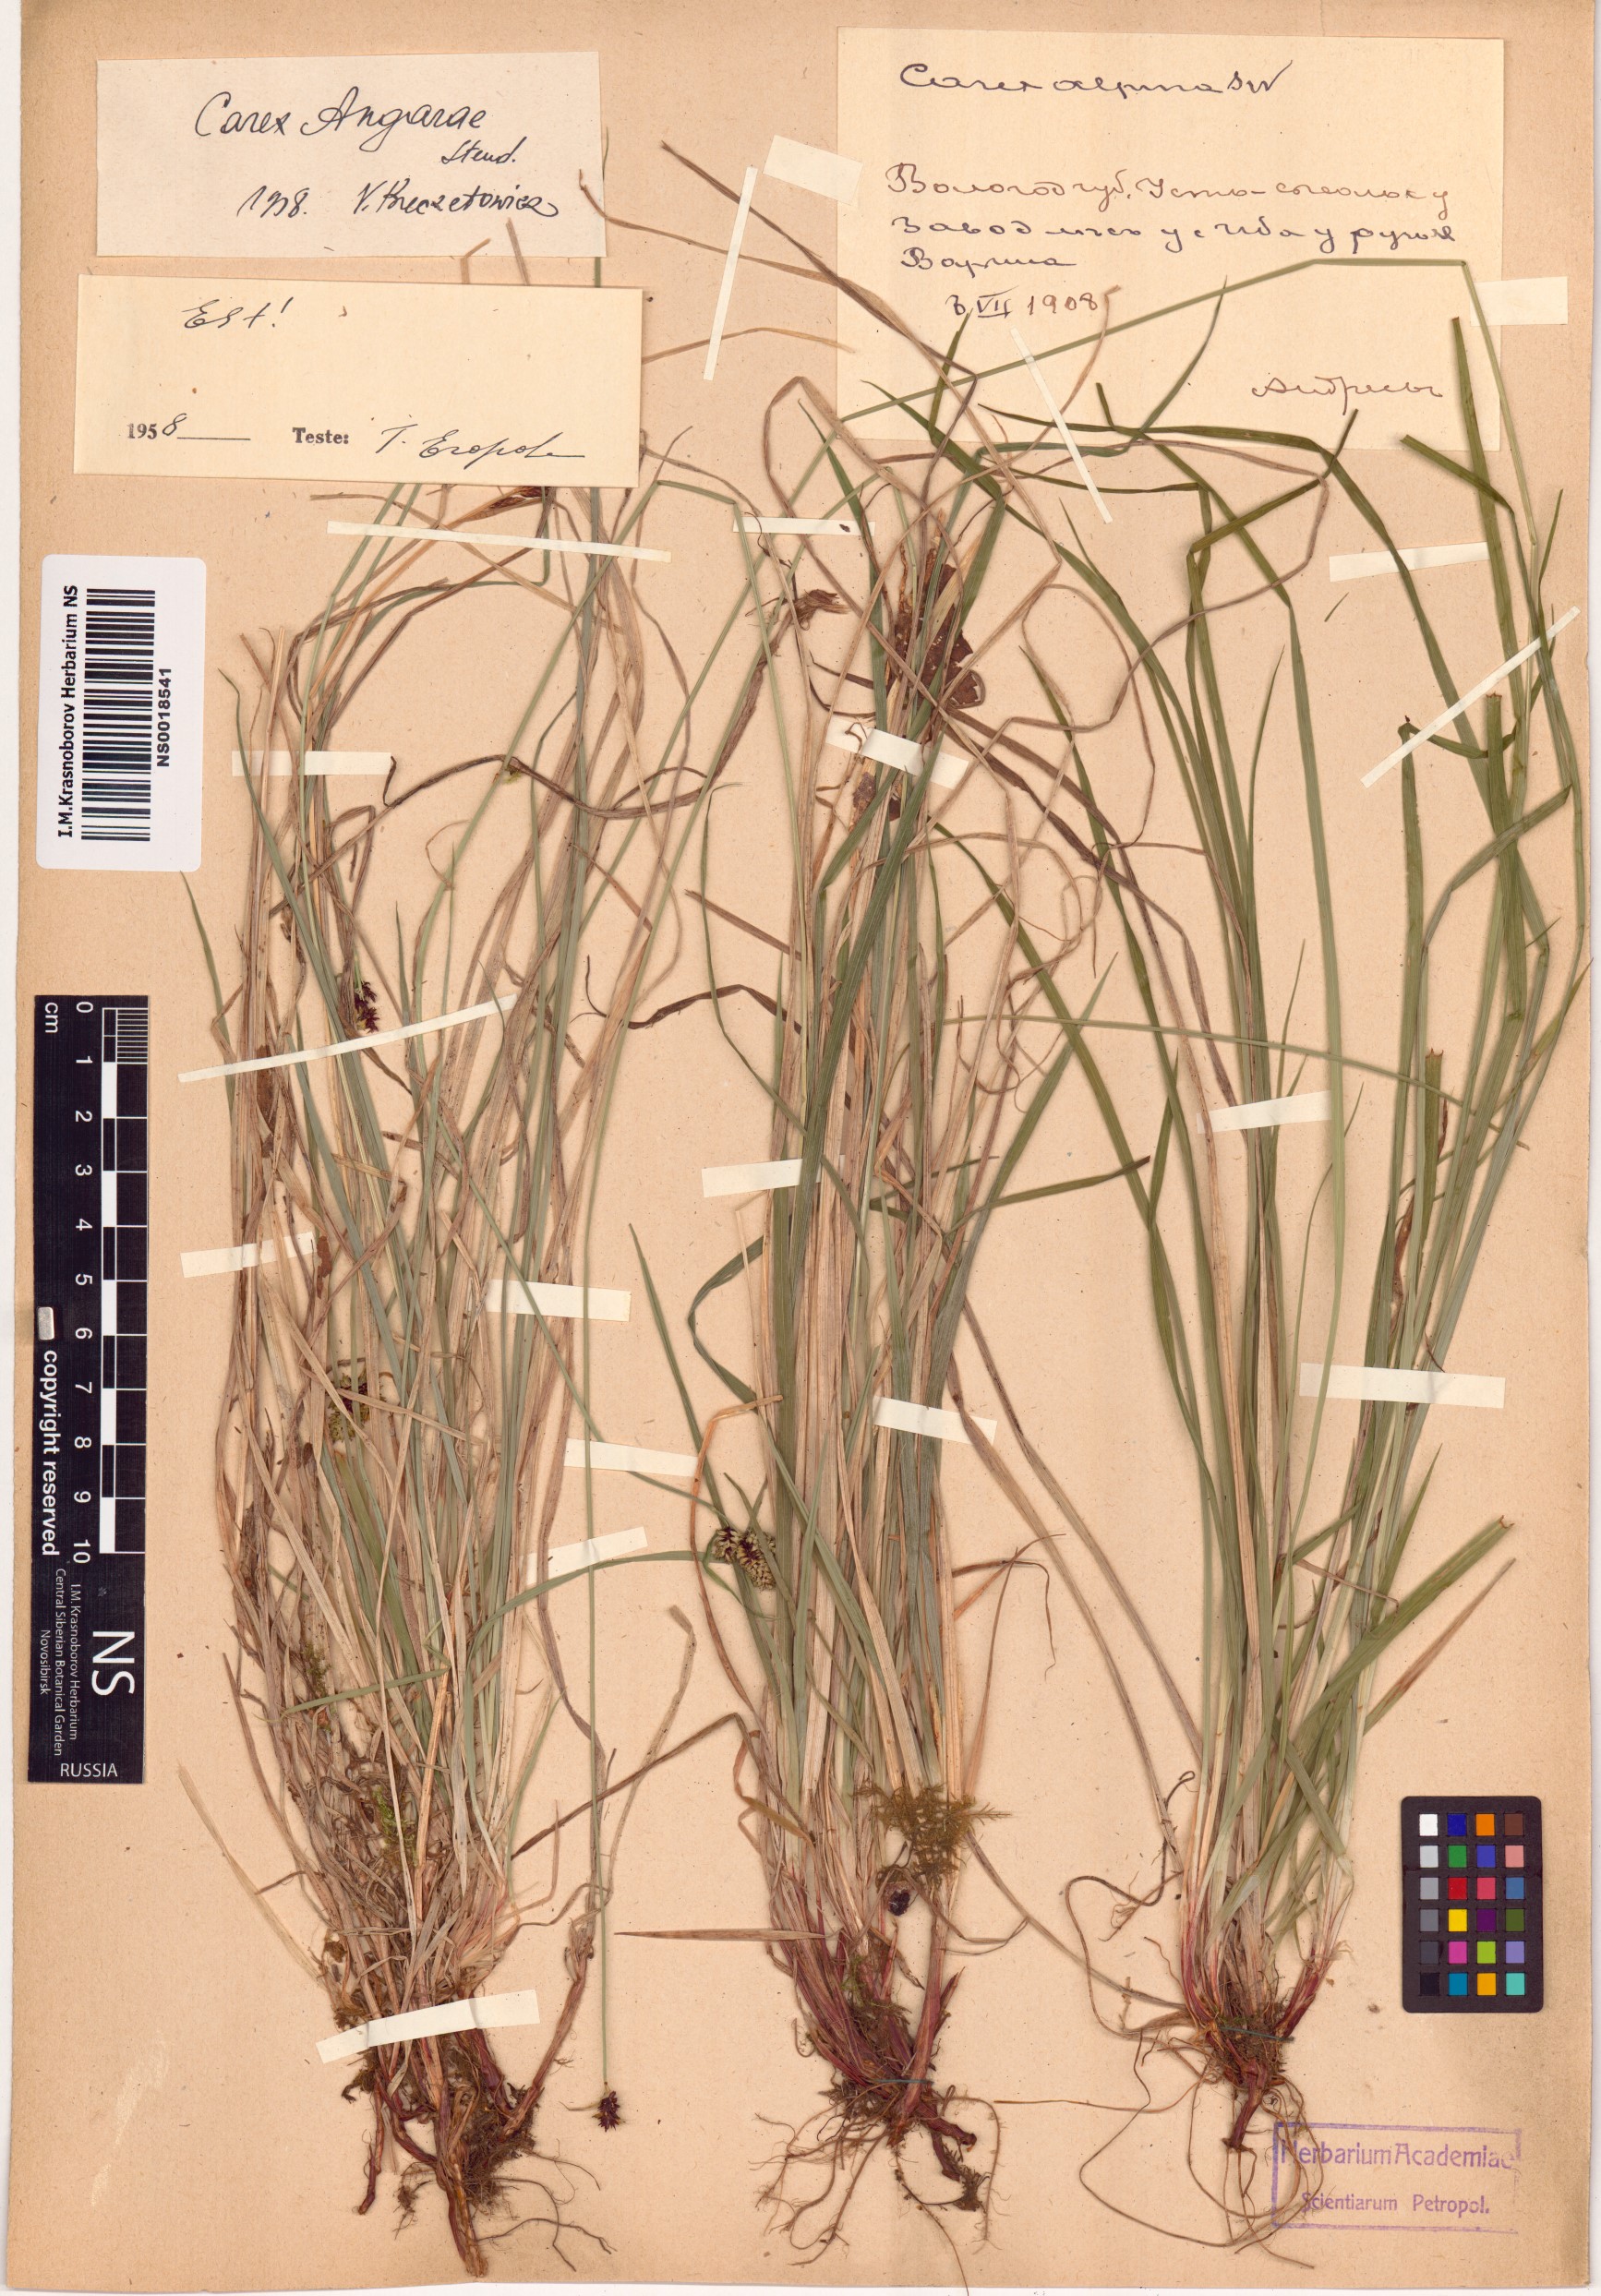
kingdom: Plantae
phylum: Tracheophyta
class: Liliopsida
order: Poales
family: Cyperaceae
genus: Carex
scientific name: Carex media
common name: Alpine sedge
